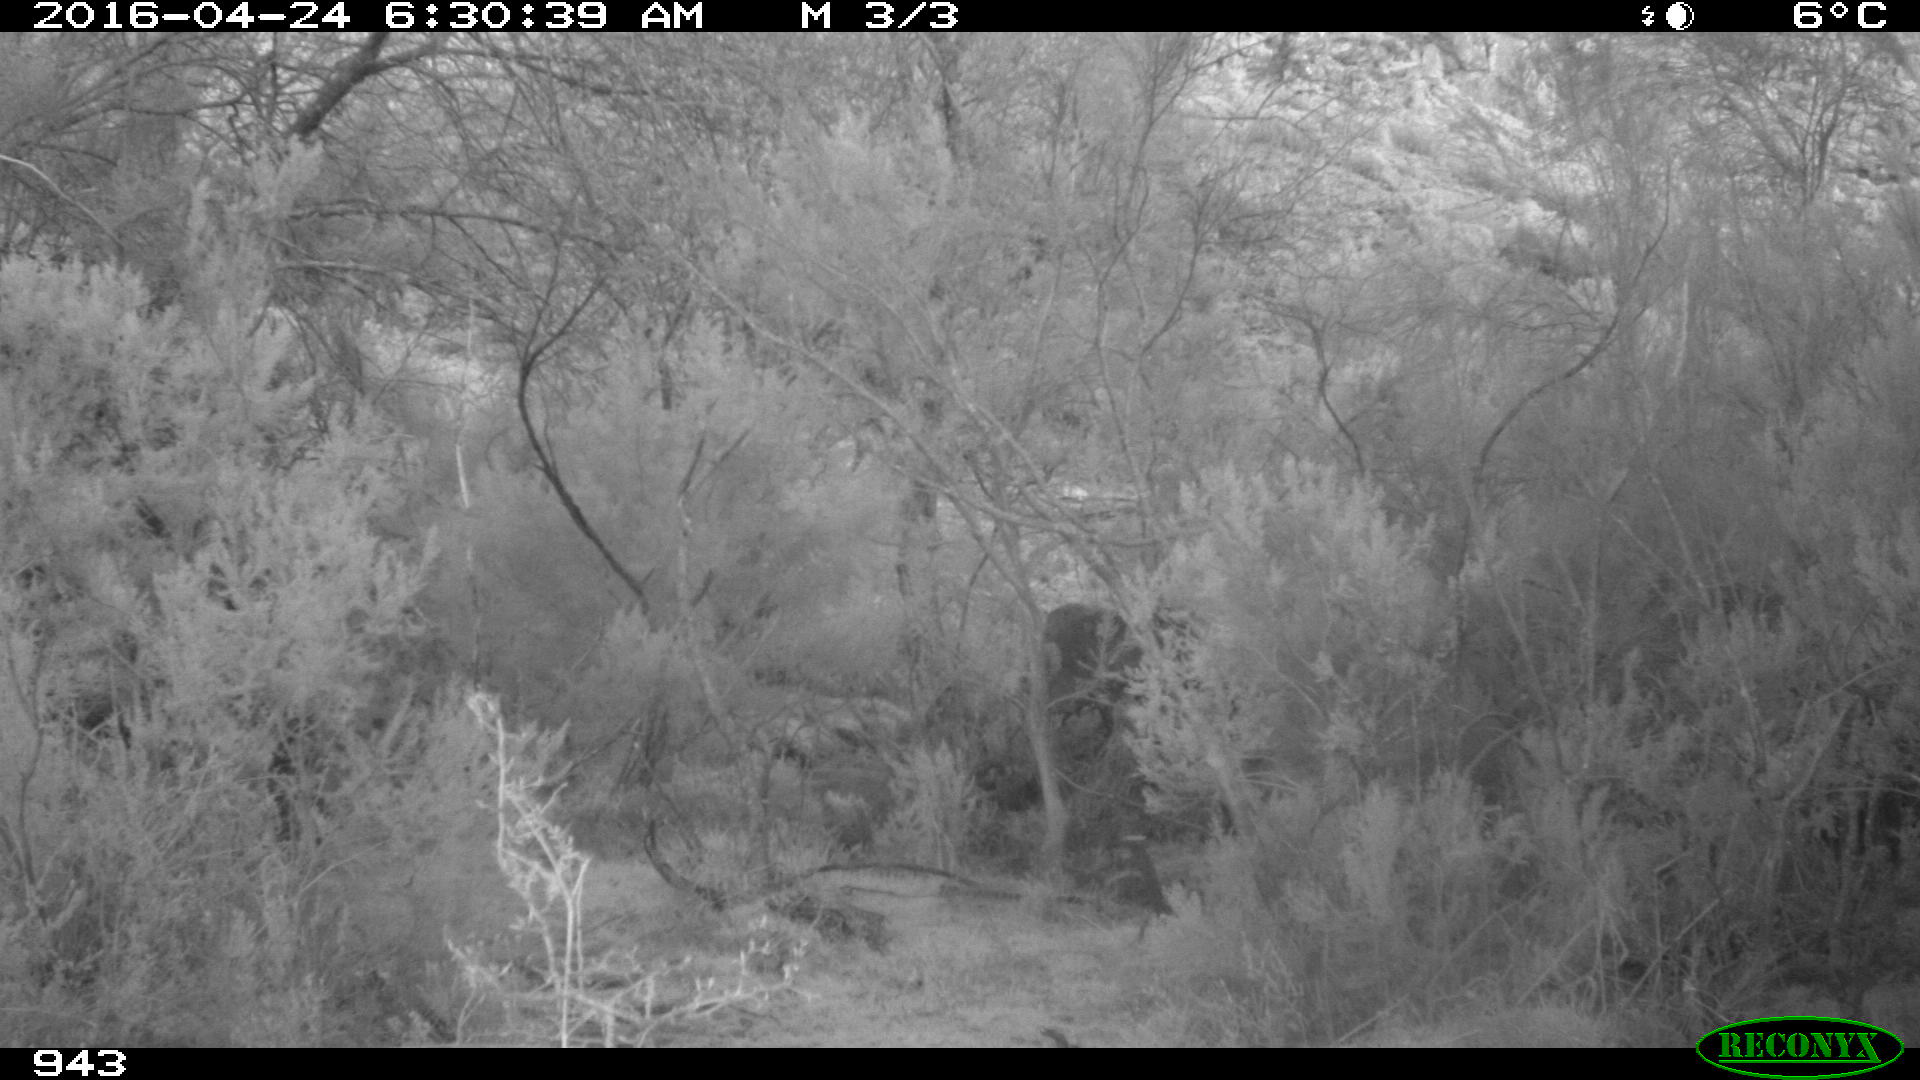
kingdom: Animalia
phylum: Chordata
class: Mammalia
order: Perissodactyla
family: Equidae
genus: Equus
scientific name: Equus caballus
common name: Horse
